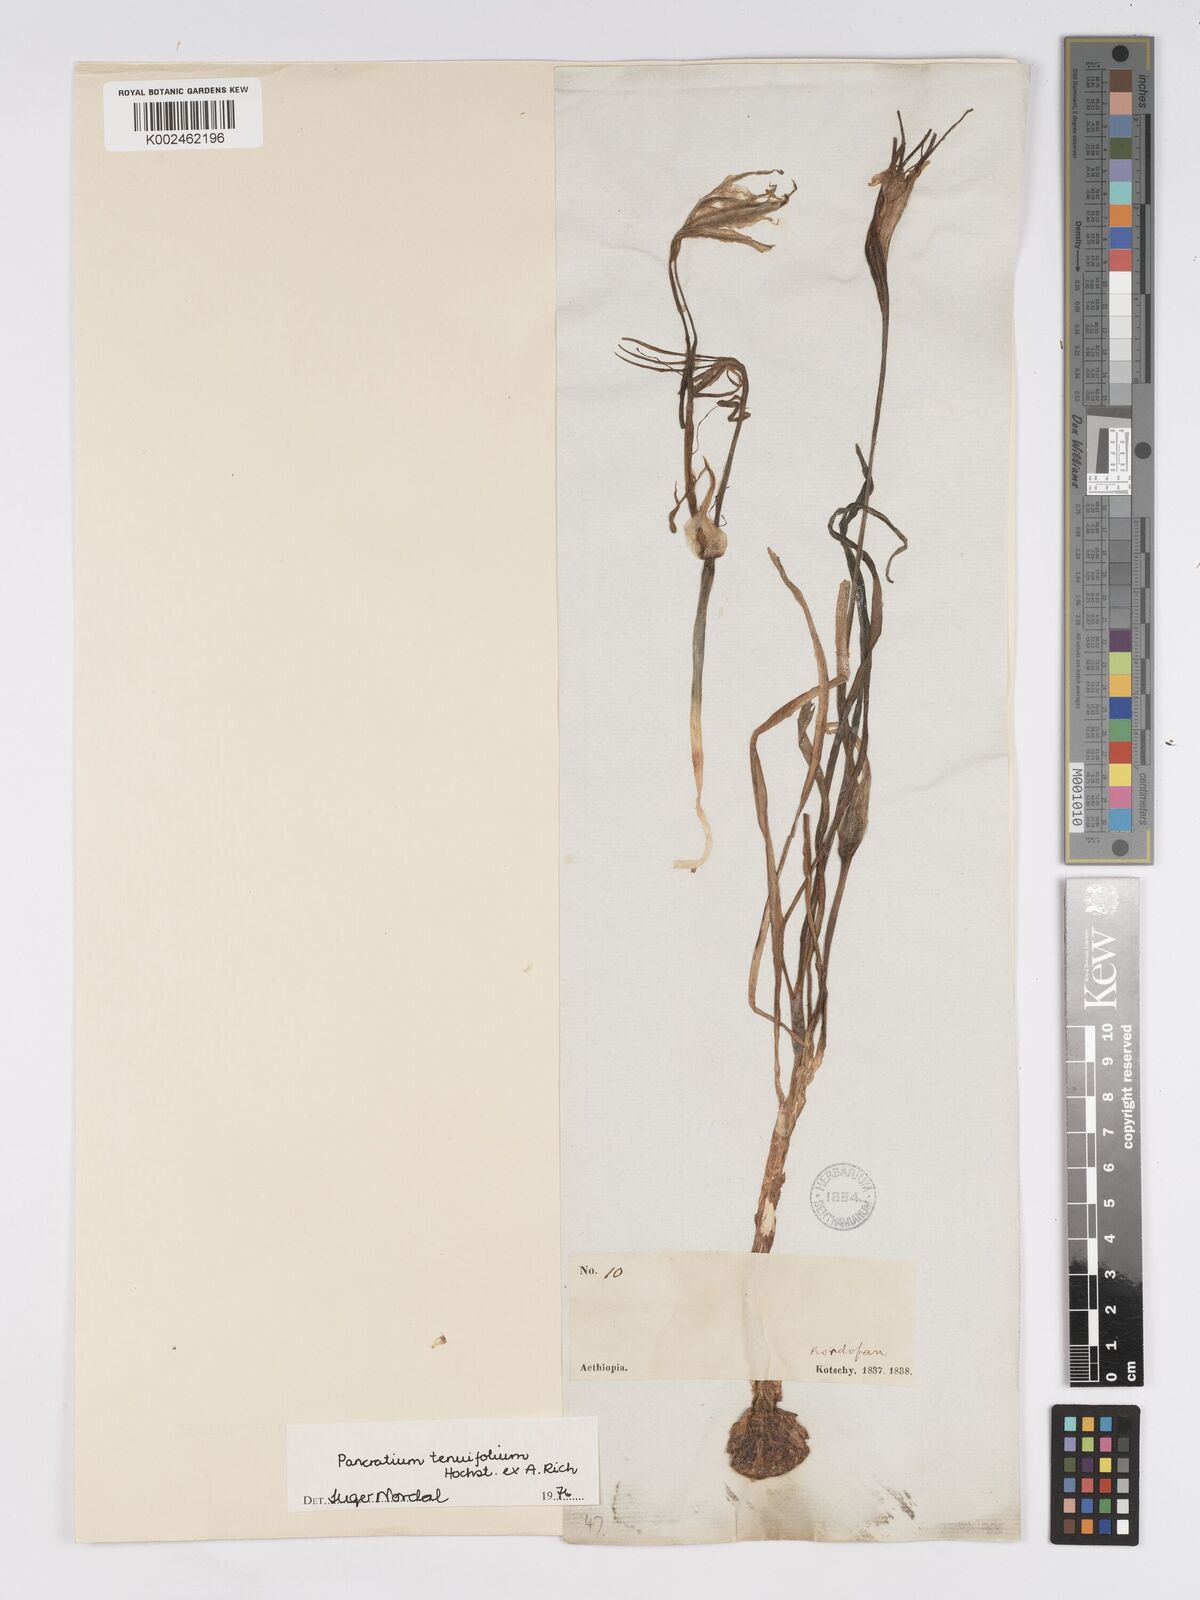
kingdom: Plantae
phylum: Tracheophyta
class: Liliopsida
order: Asparagales
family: Amaryllidaceae
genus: Pancratium
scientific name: Pancratium tenuifolium
